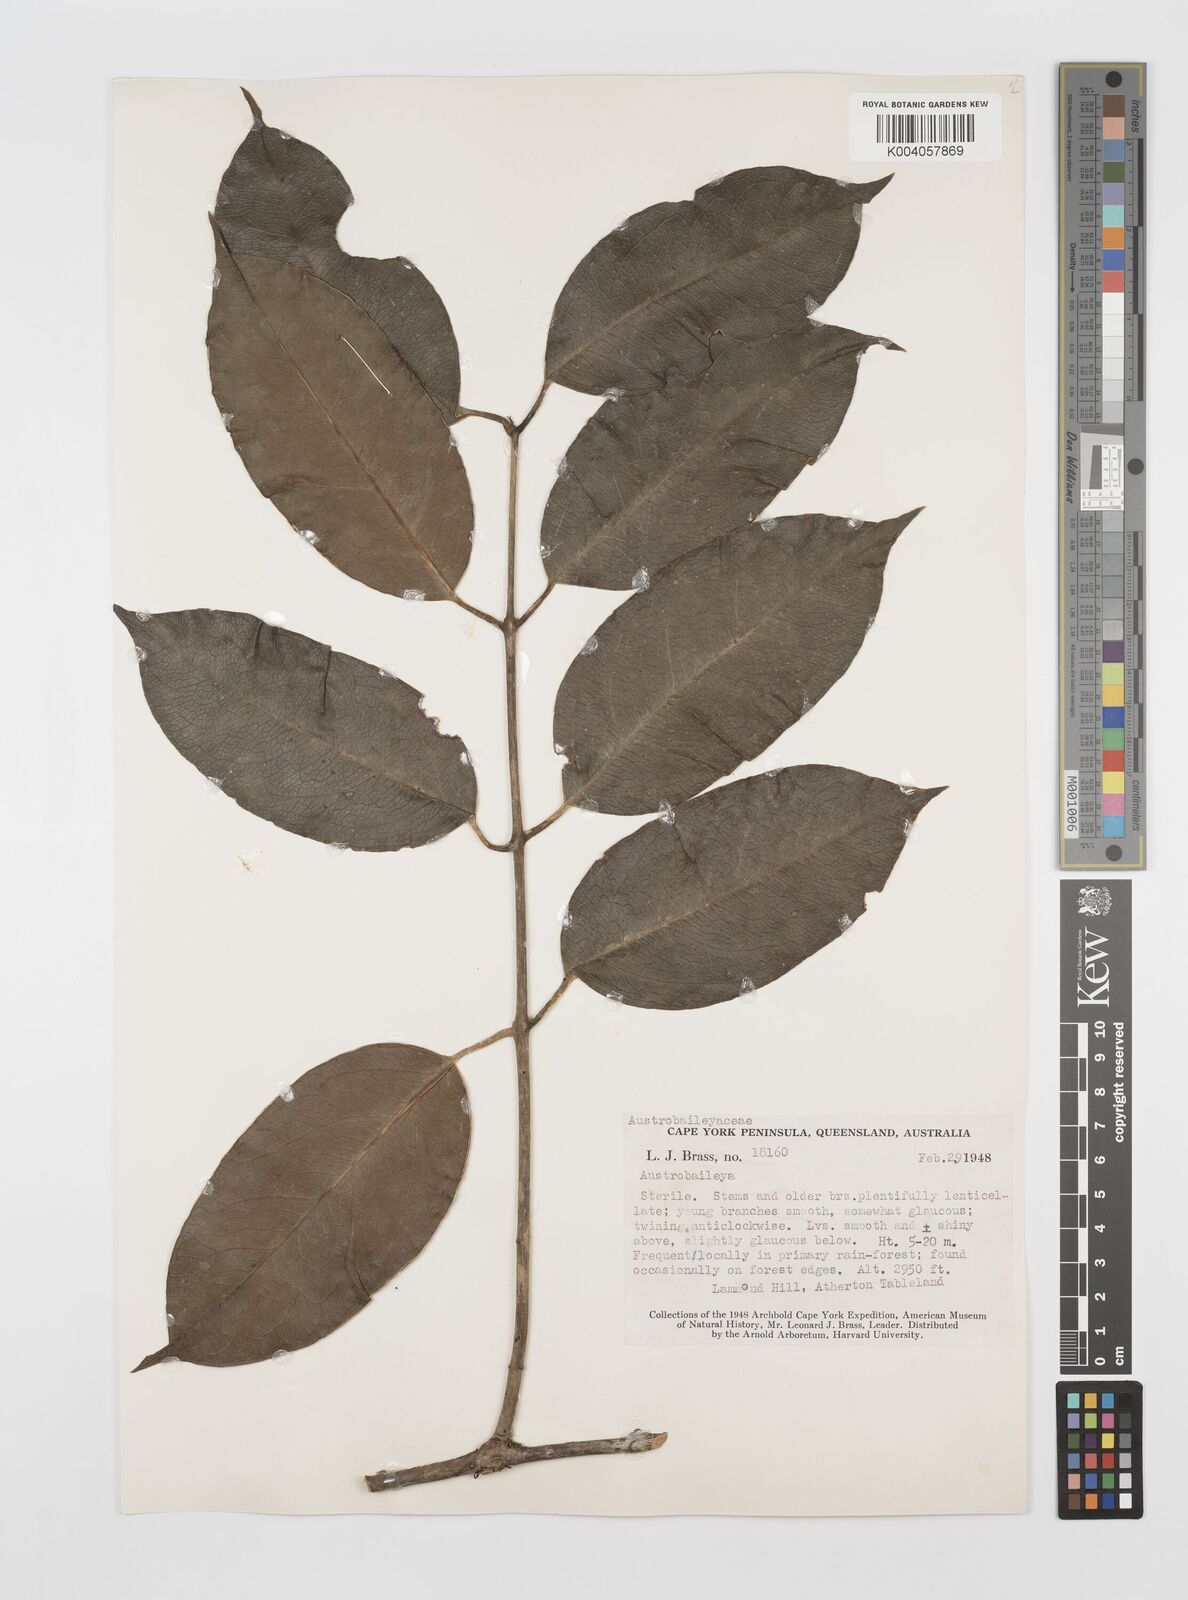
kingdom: Plantae
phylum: Tracheophyta
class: Magnoliopsida
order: Austrobaileyales
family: Austrobaileyaceae
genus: Austrobaileya
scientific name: Austrobaileya scandens
